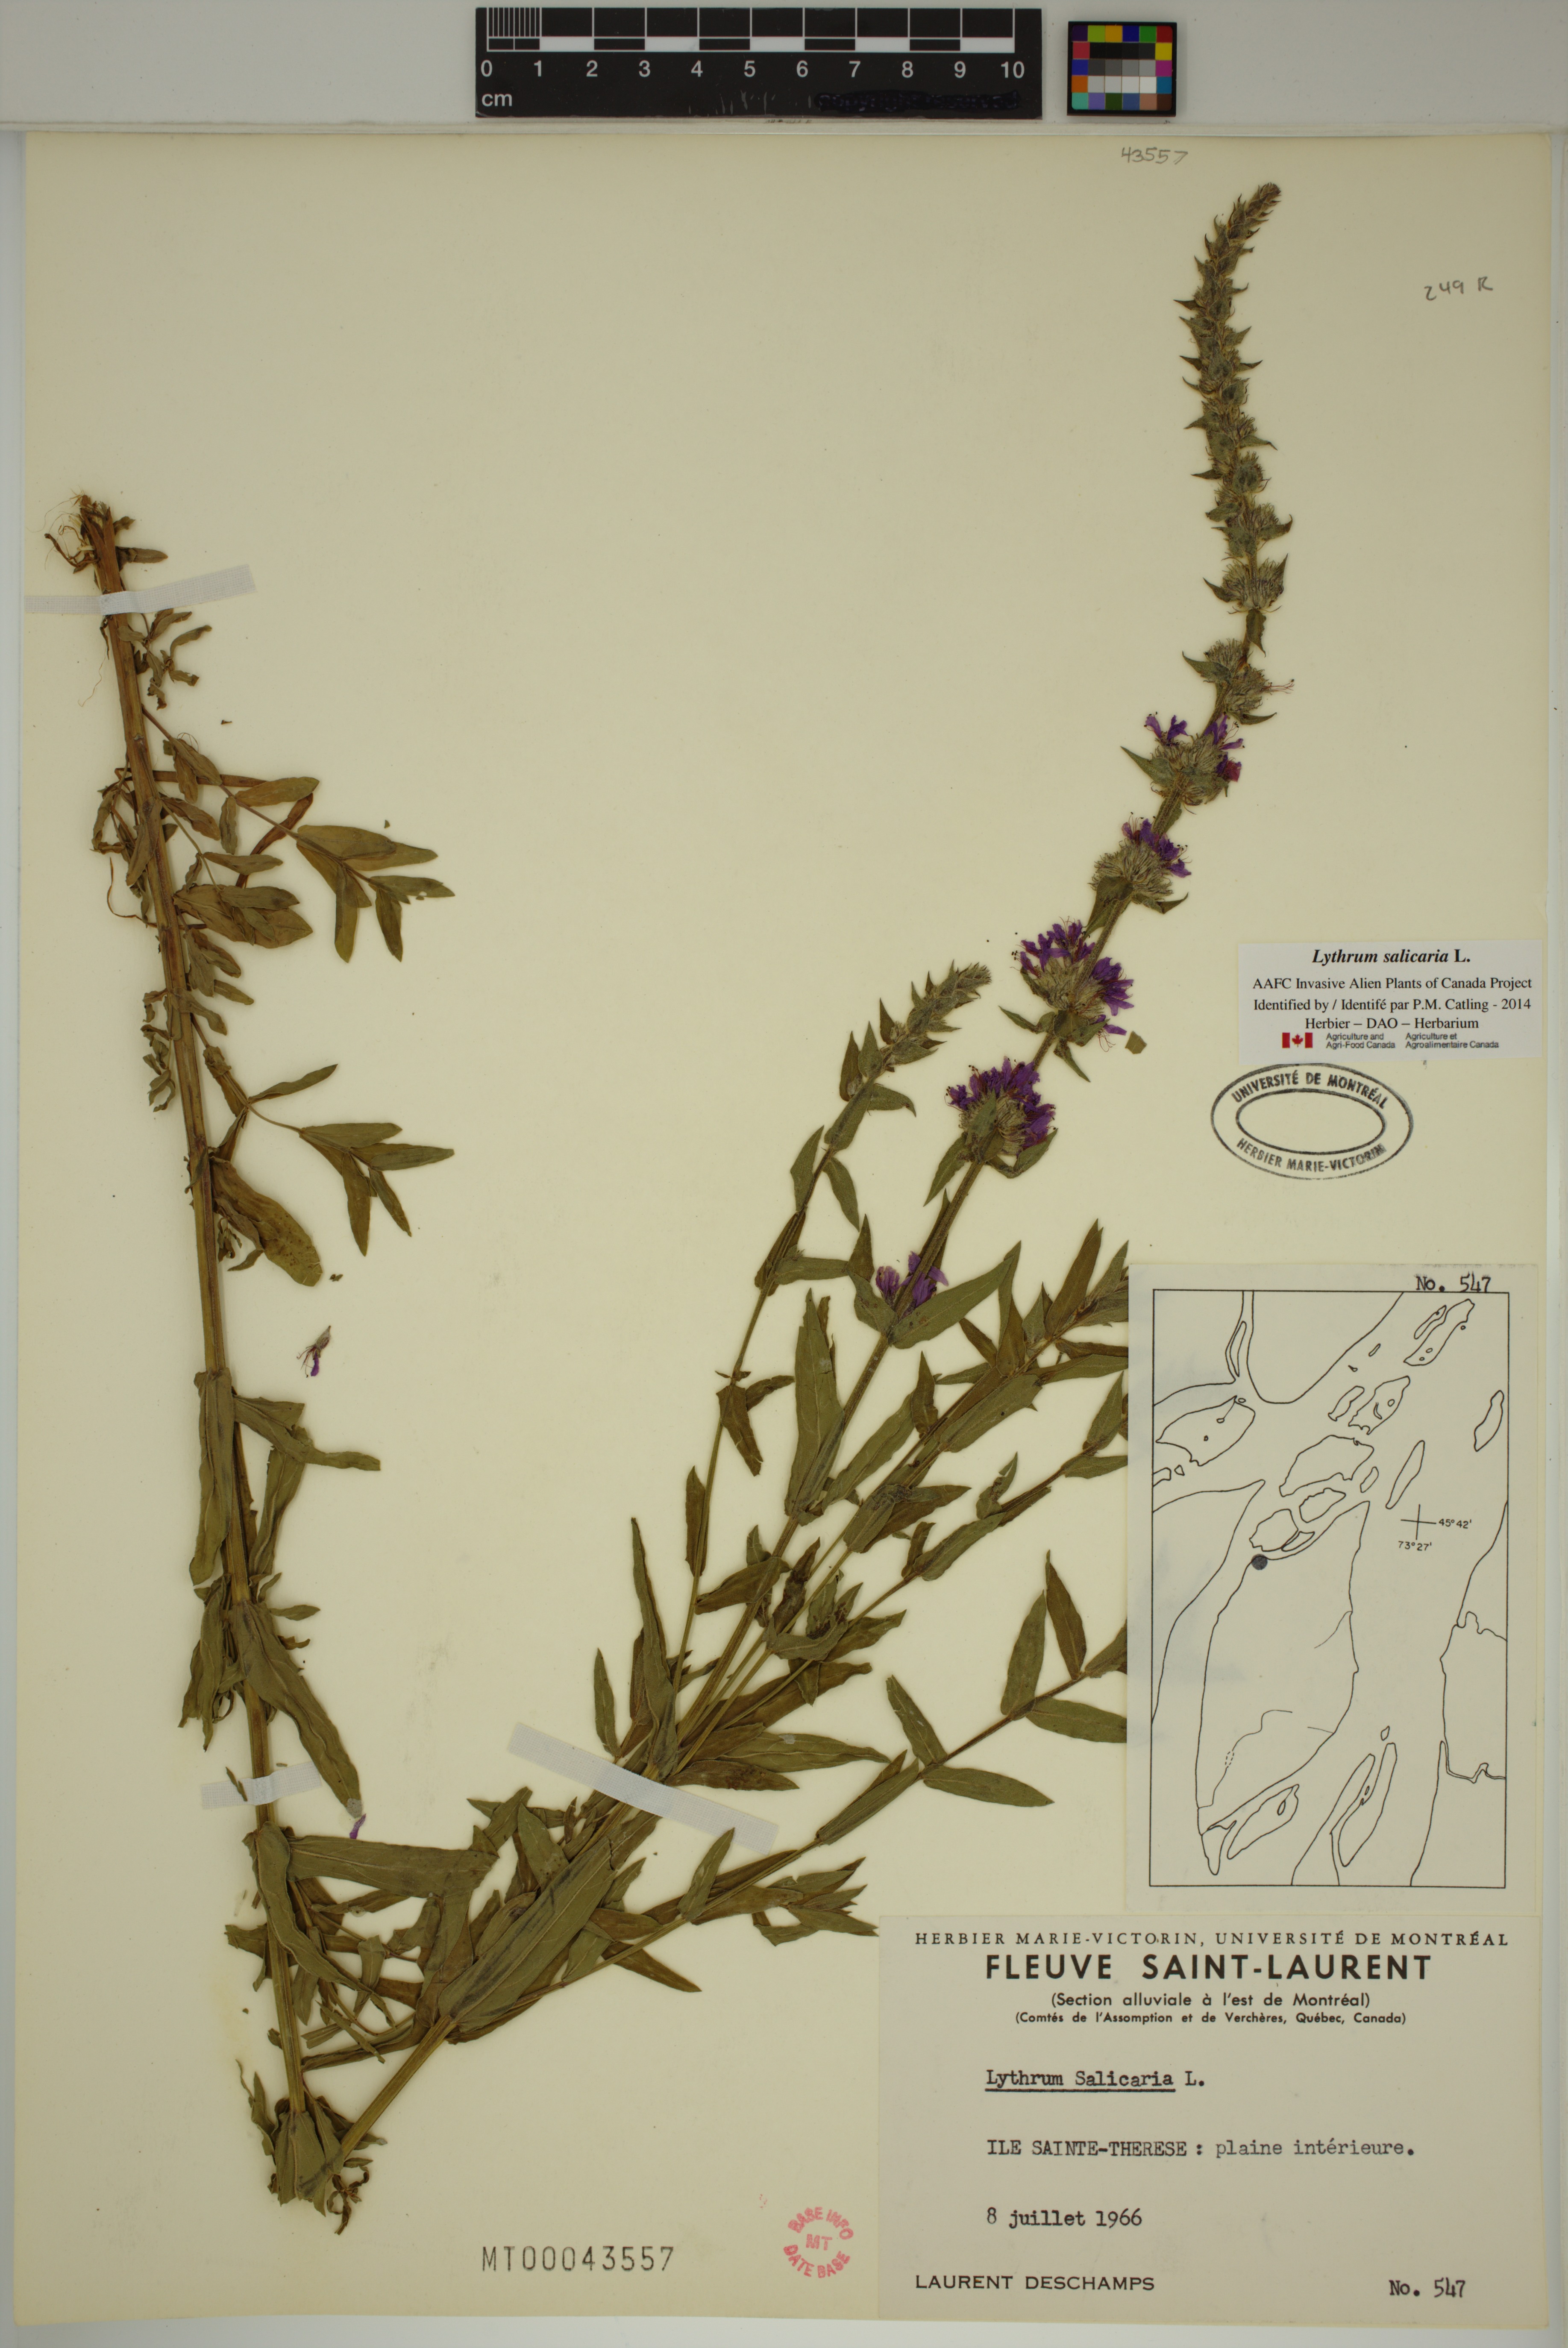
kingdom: Plantae
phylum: Tracheophyta
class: Magnoliopsida
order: Myrtales
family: Lythraceae
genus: Lythrum
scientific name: Lythrum salicaria
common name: Purple loosestrife
